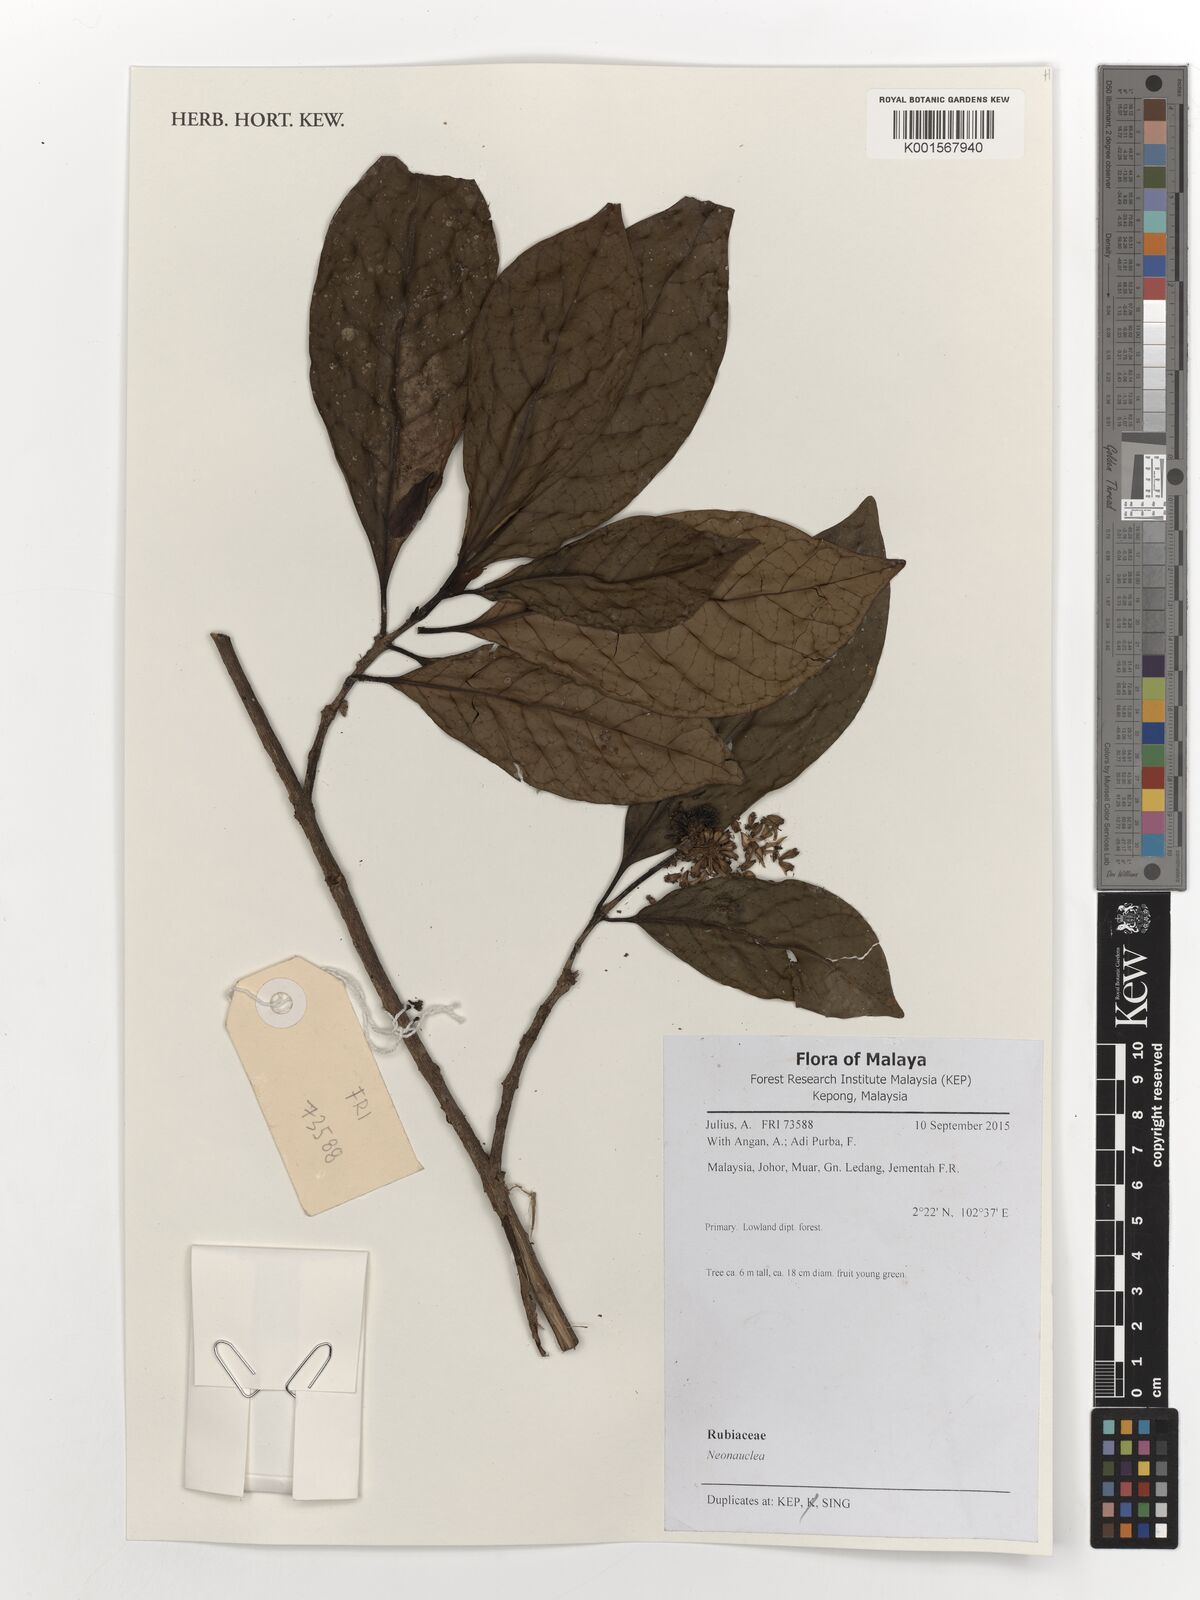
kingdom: Plantae
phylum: Tracheophyta
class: Magnoliopsida
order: Gentianales
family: Rubiaceae
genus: Neonauclea
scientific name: Neonauclea
